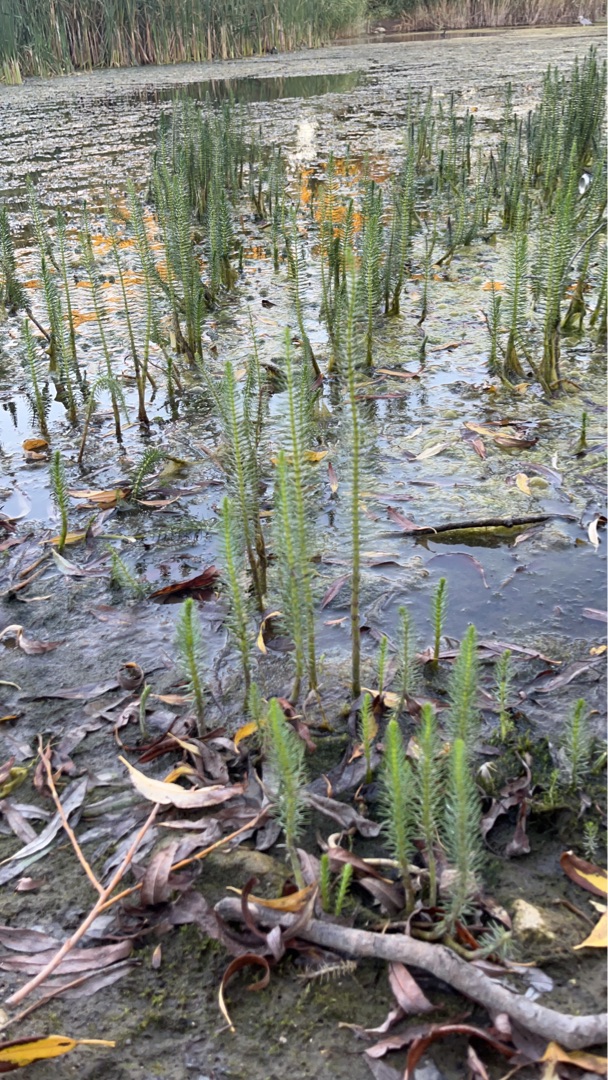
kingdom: Plantae
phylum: Tracheophyta
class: Magnoliopsida
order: Lamiales
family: Plantaginaceae
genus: Hippuris
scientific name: Hippuris vulgaris
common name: Vandspir
